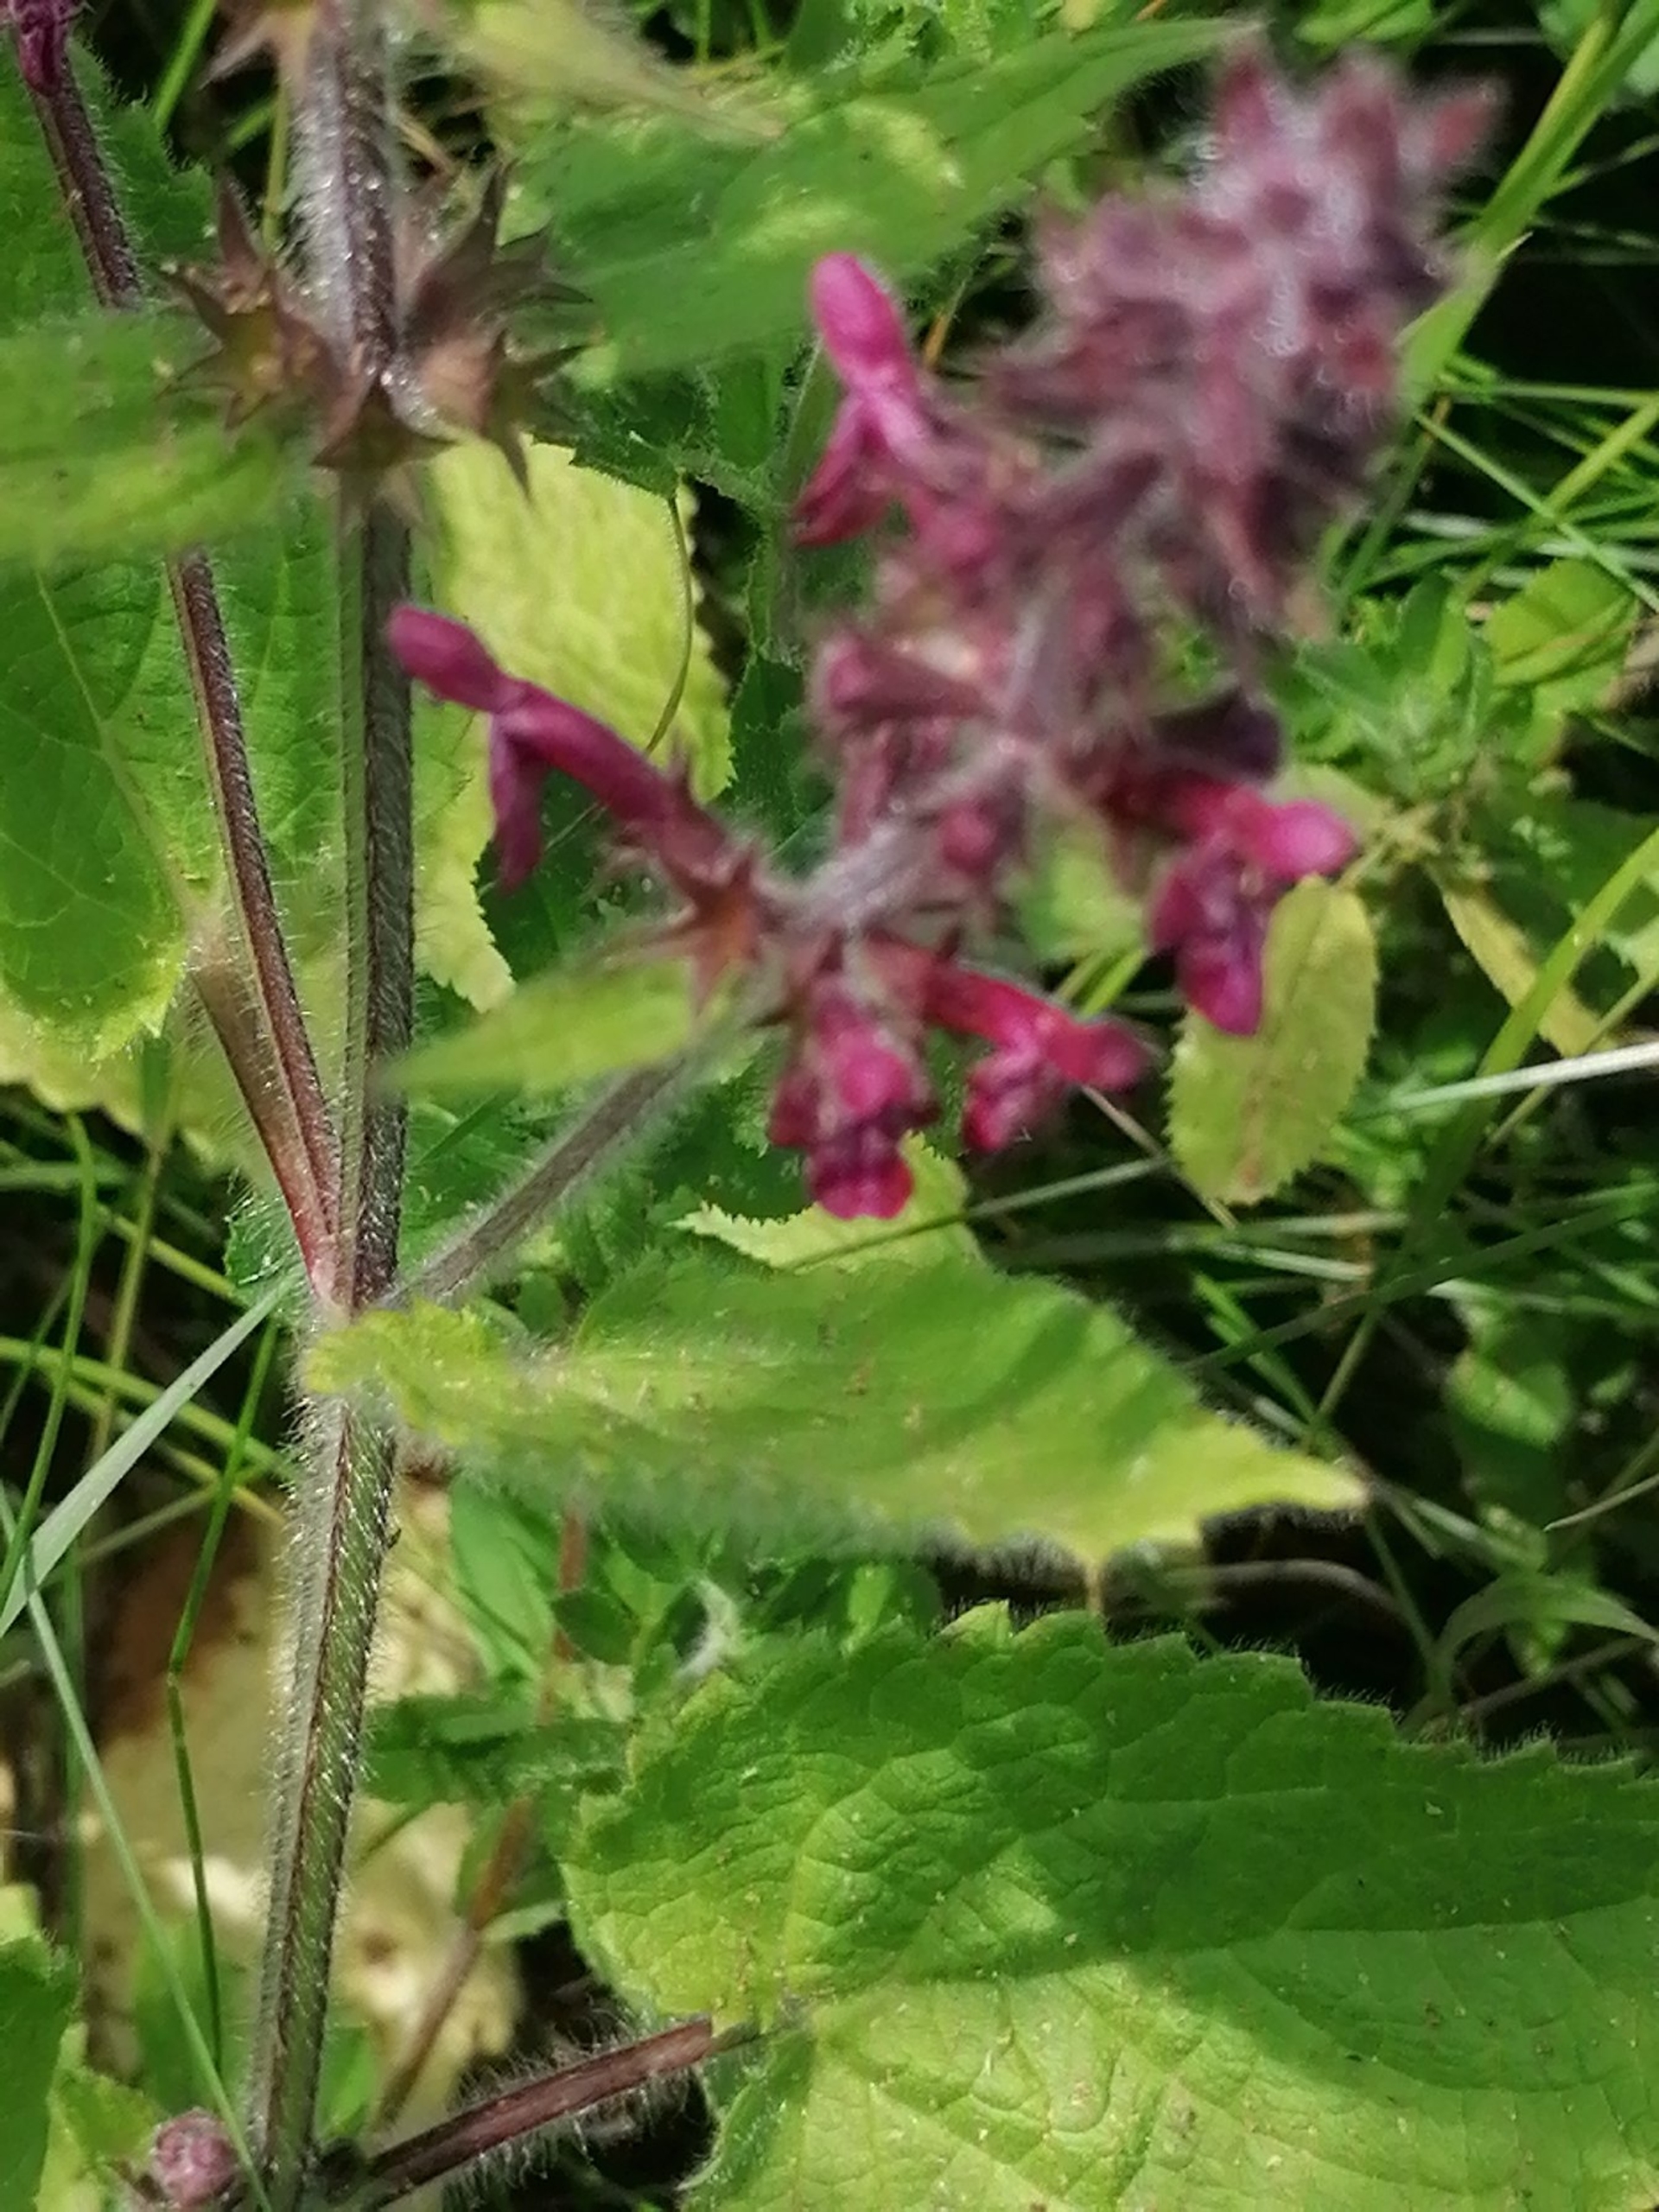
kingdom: Plantae
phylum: Tracheophyta
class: Magnoliopsida
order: Lamiales
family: Lamiaceae
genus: Stachys
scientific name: Stachys sylvatica
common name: Skov-galtetand
